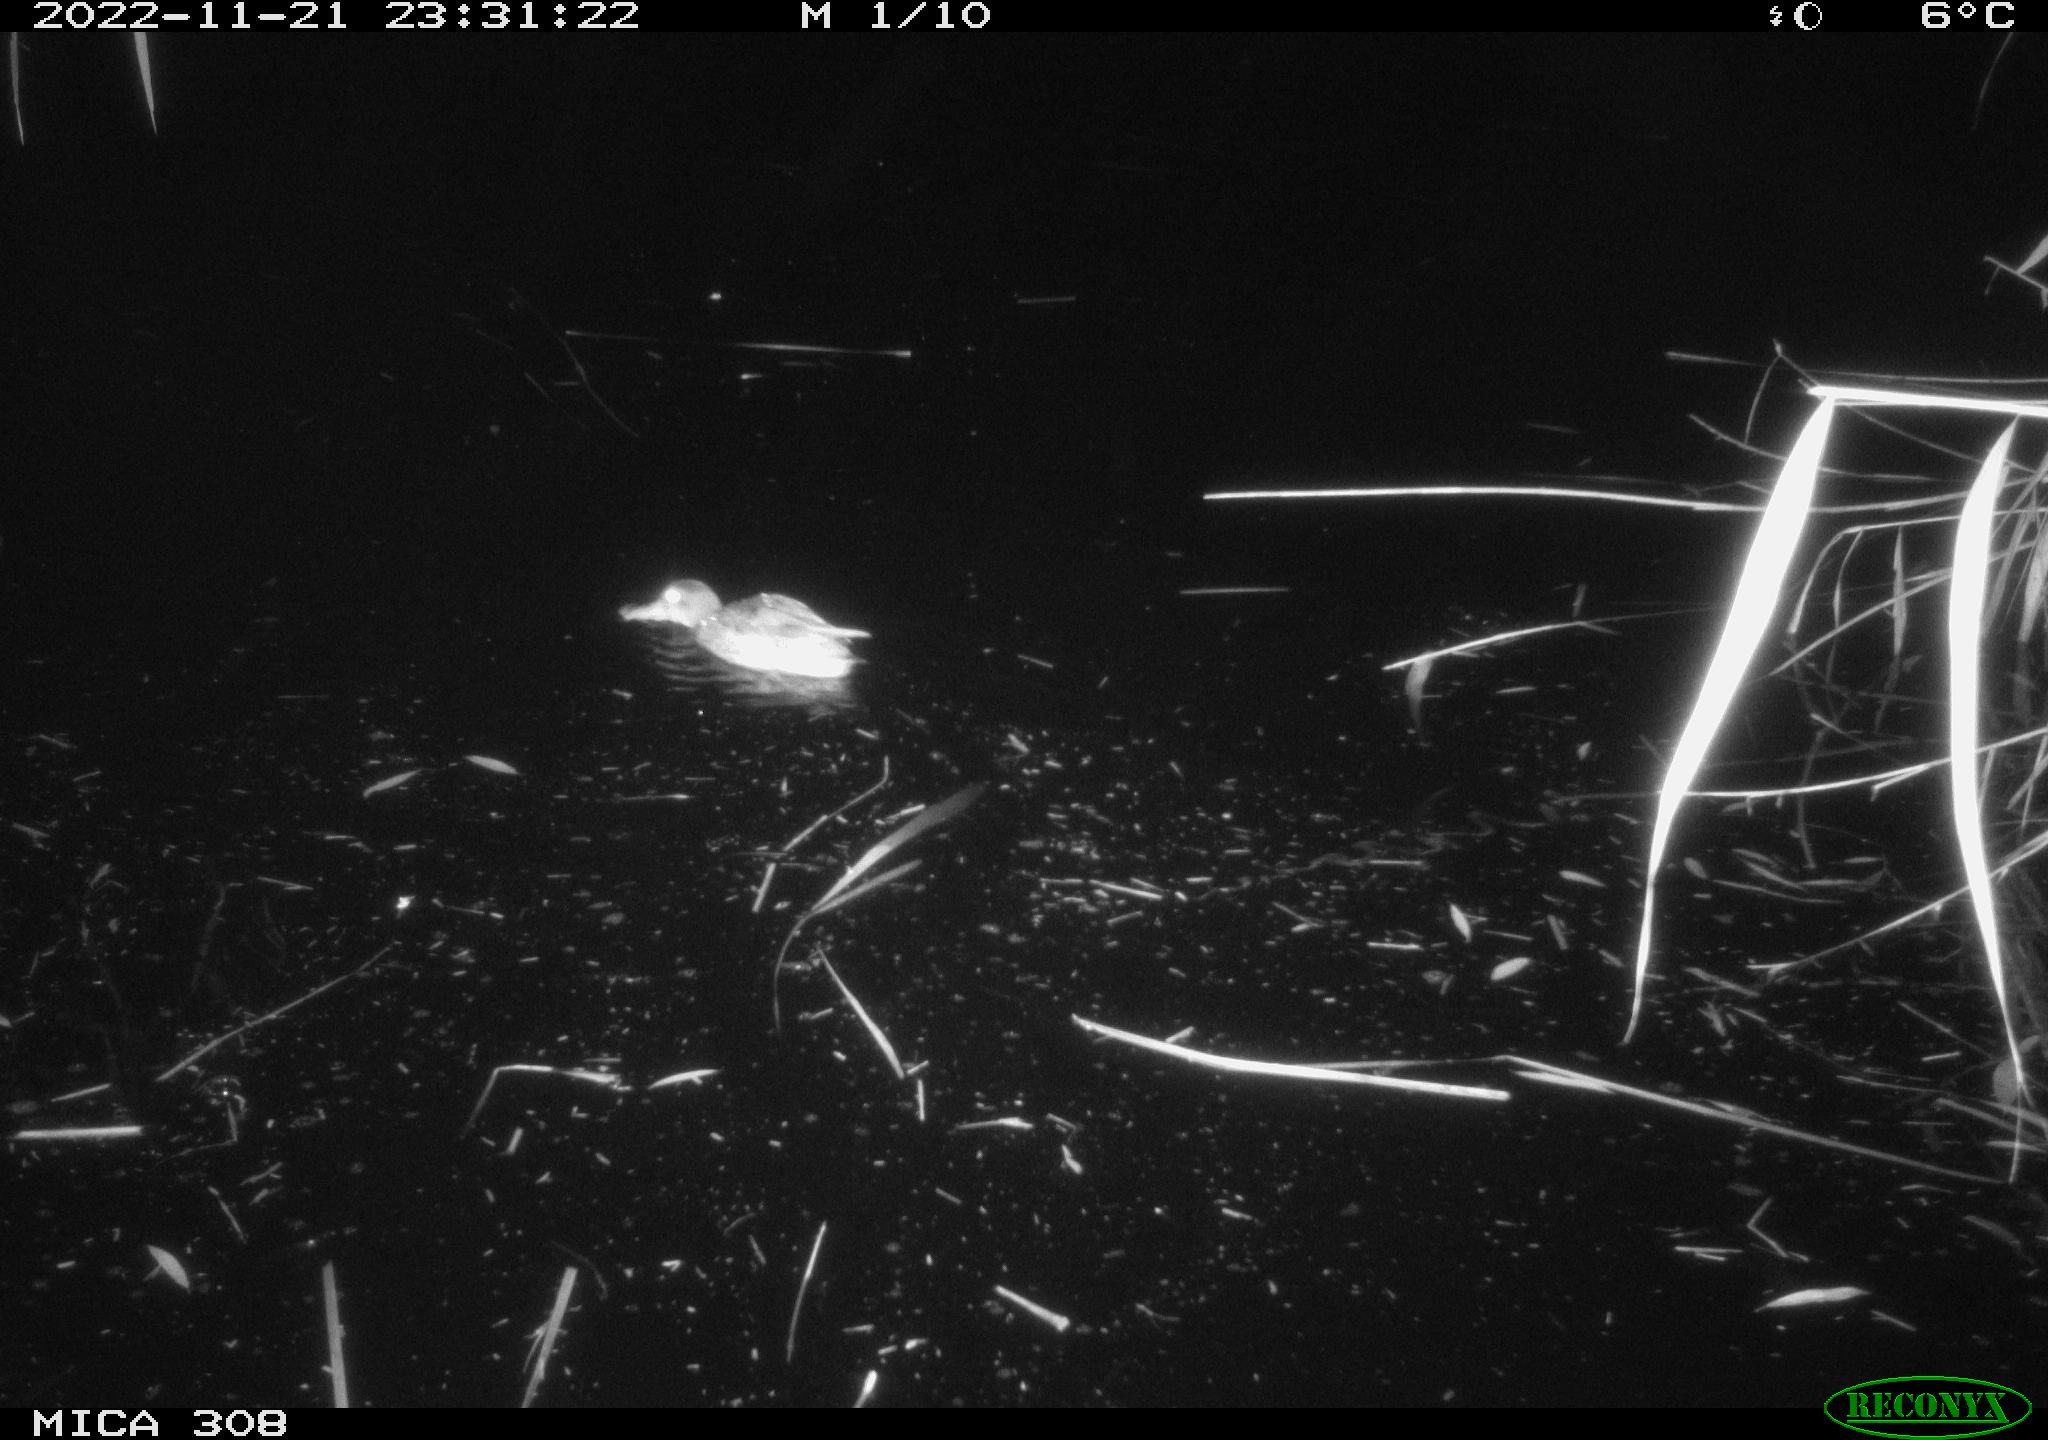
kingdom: Animalia
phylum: Chordata
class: Aves
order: Anseriformes
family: Anatidae
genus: Anas
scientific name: Anas
